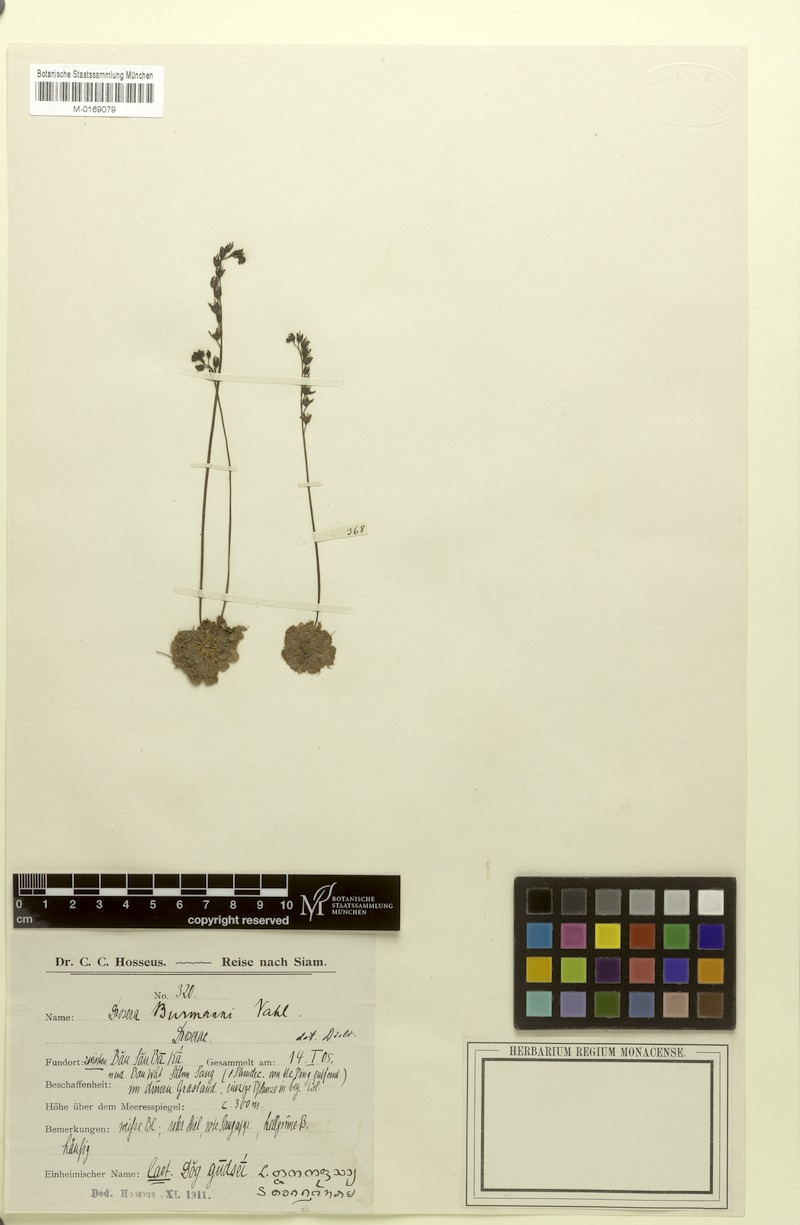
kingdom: Plantae
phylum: Tracheophyta
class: Magnoliopsida
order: Caryophyllales
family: Droseraceae
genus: Drosera
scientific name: Drosera burmannii
